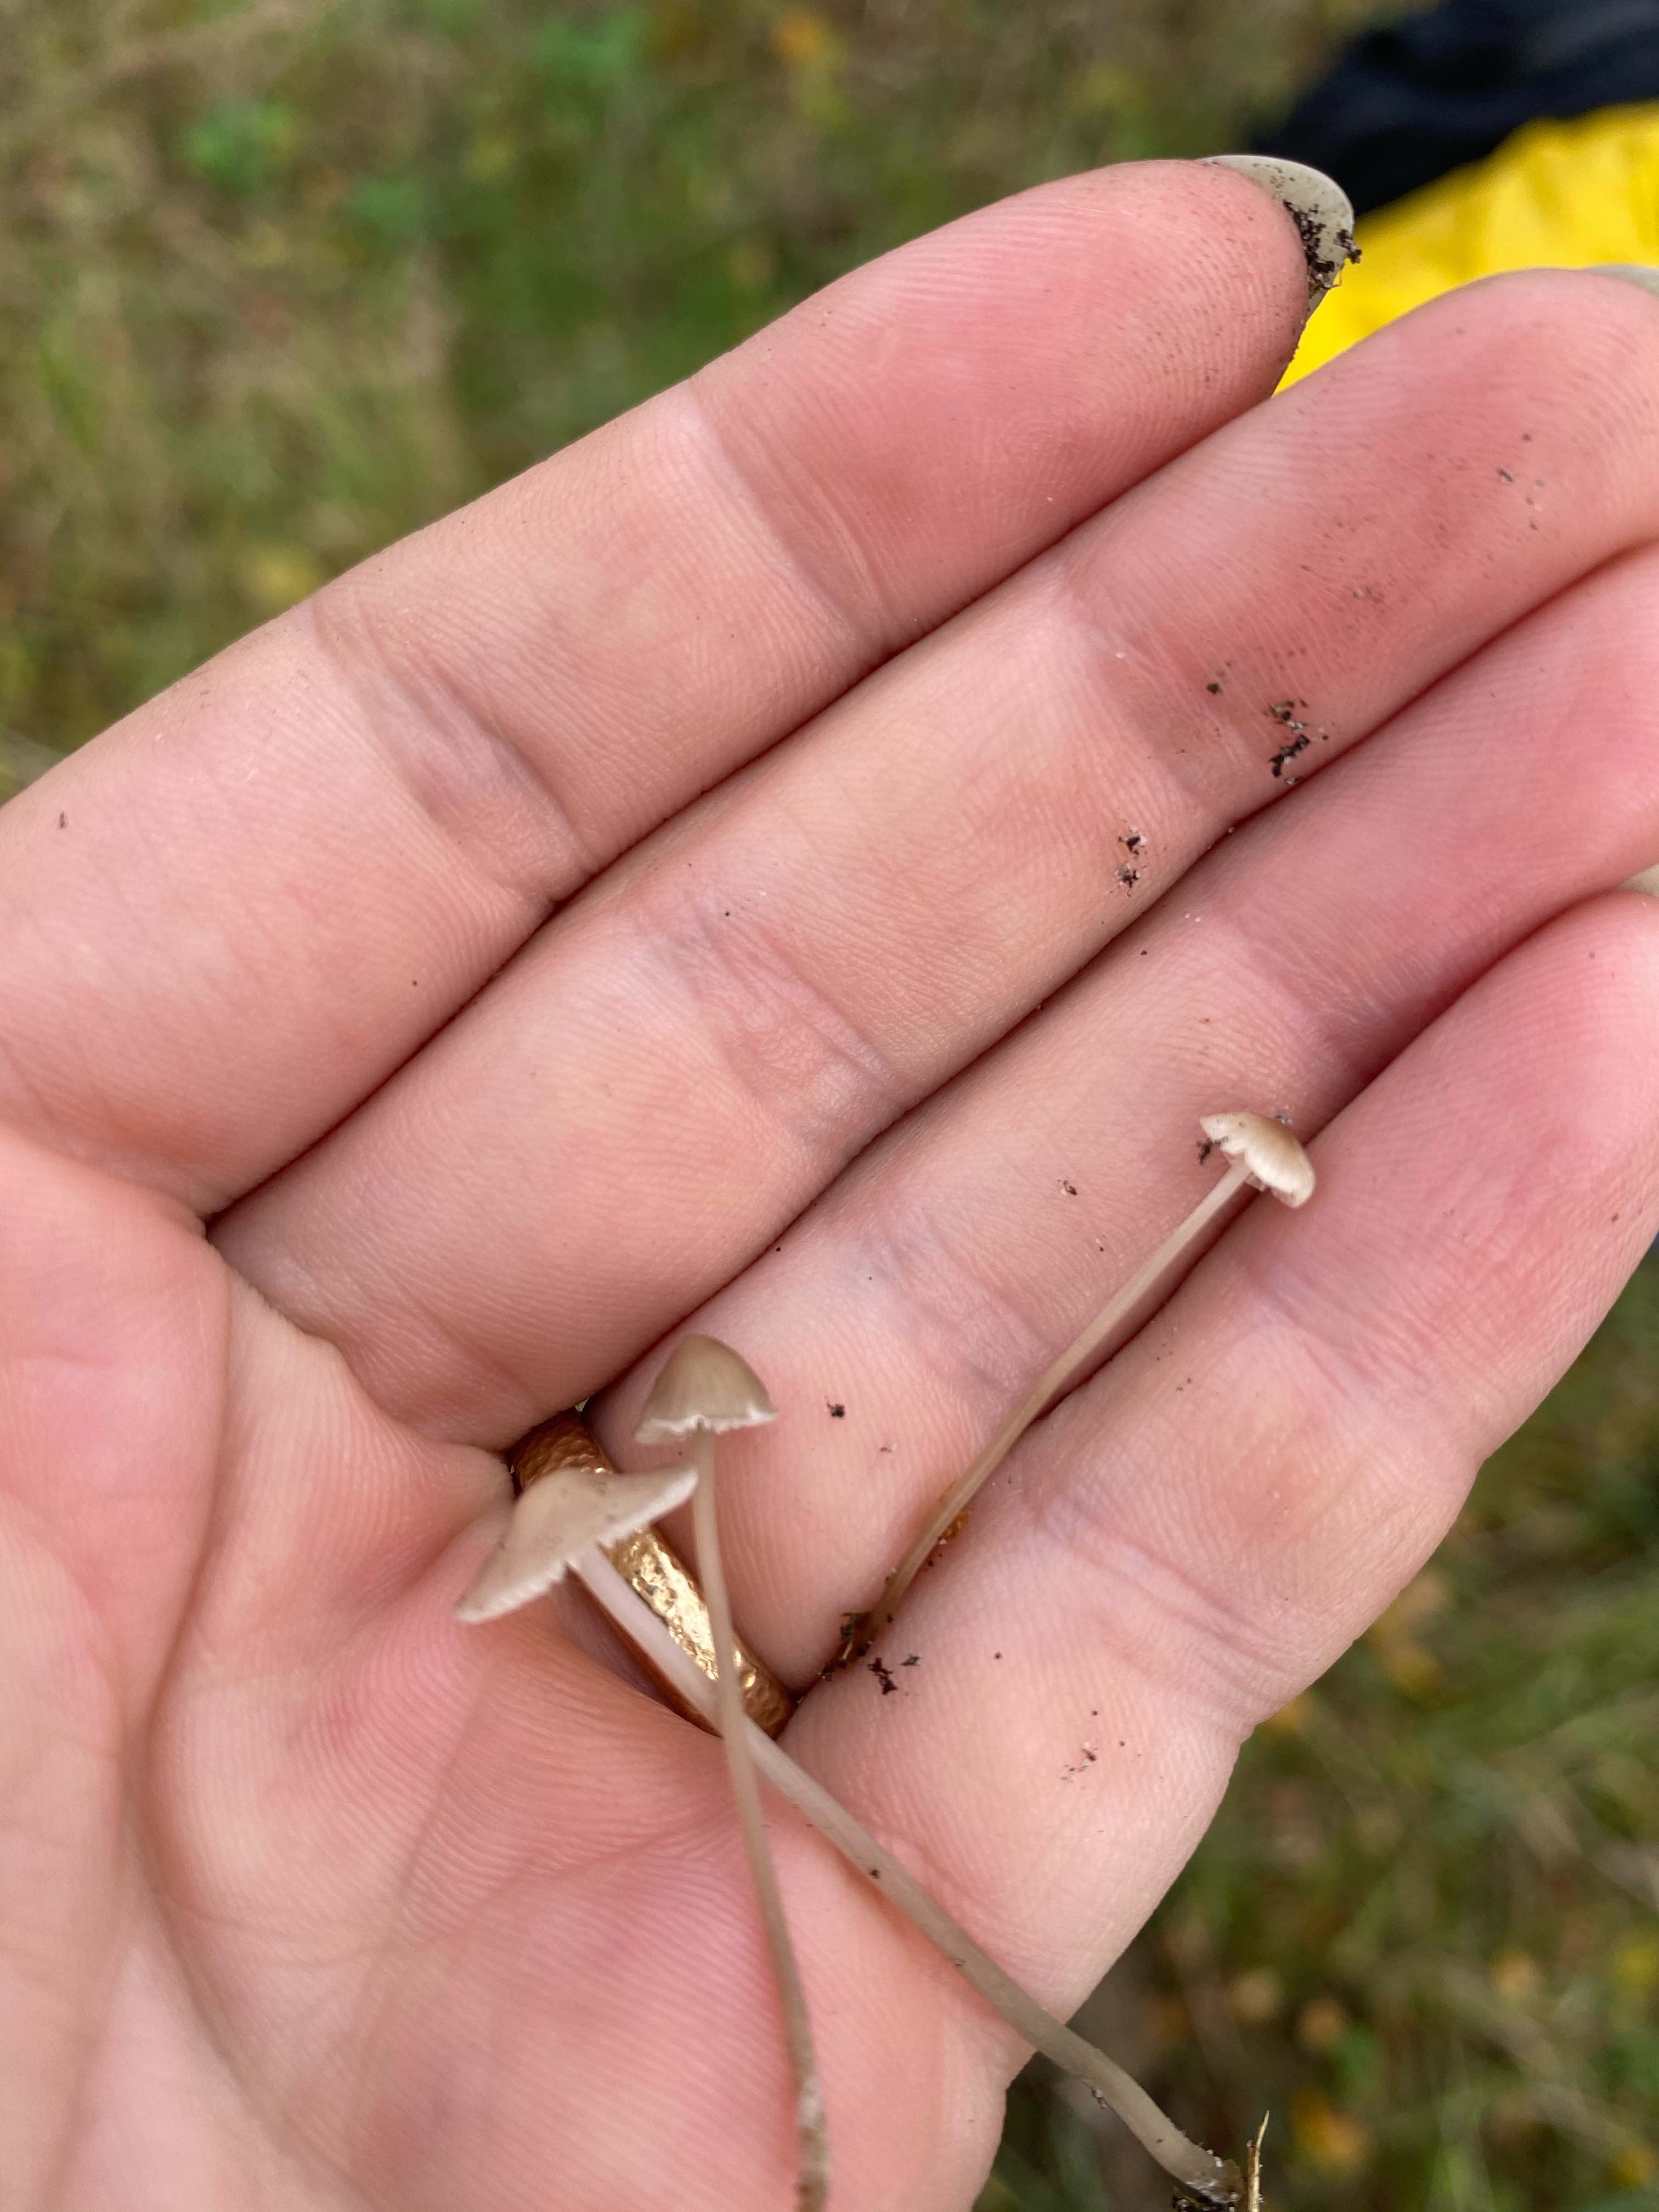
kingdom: Fungi
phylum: Basidiomycota
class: Agaricomycetes
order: Agaricales
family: Mycenaceae
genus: Mycena
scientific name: Mycena leptocephala
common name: klor-huesvamp
